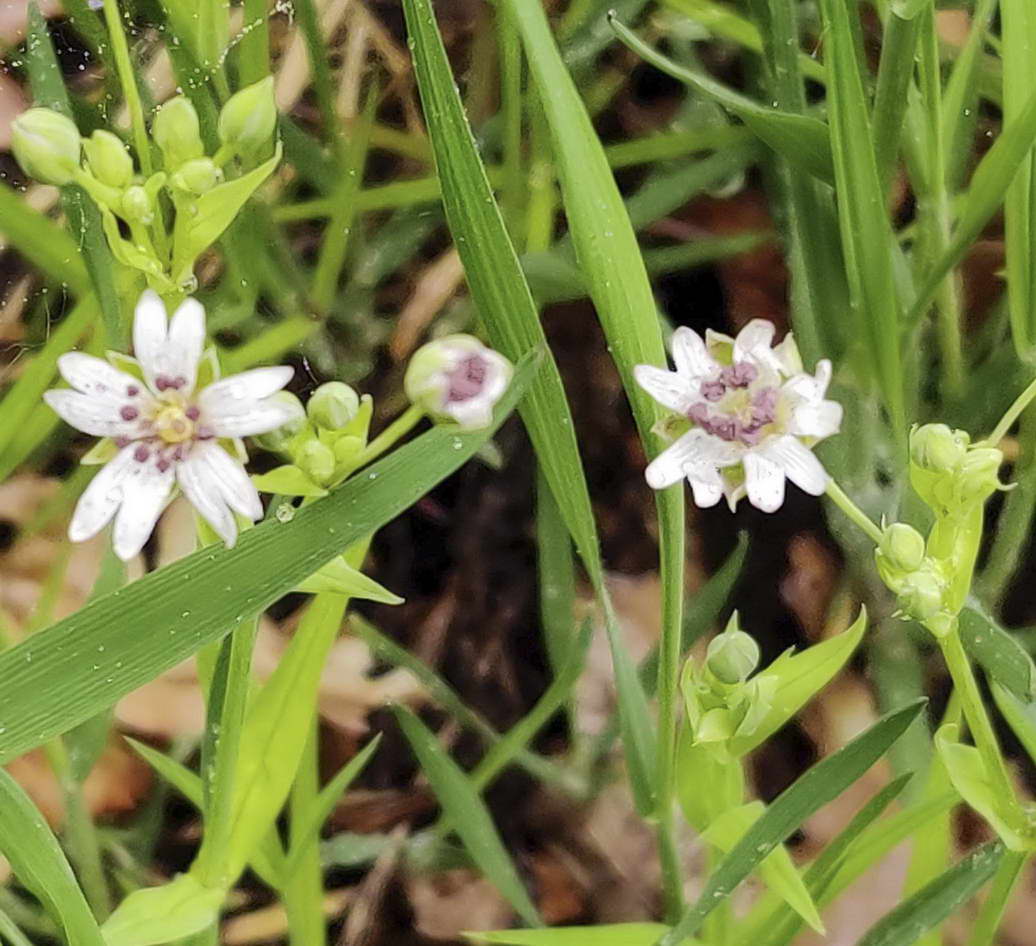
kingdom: Fungi
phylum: Basidiomycota
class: Microbotryomycetes
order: Microbotryales
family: Microbotryaceae
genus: Microbotryum
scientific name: Microbotryum stellariae
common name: fladstjerne-støvbladrust
